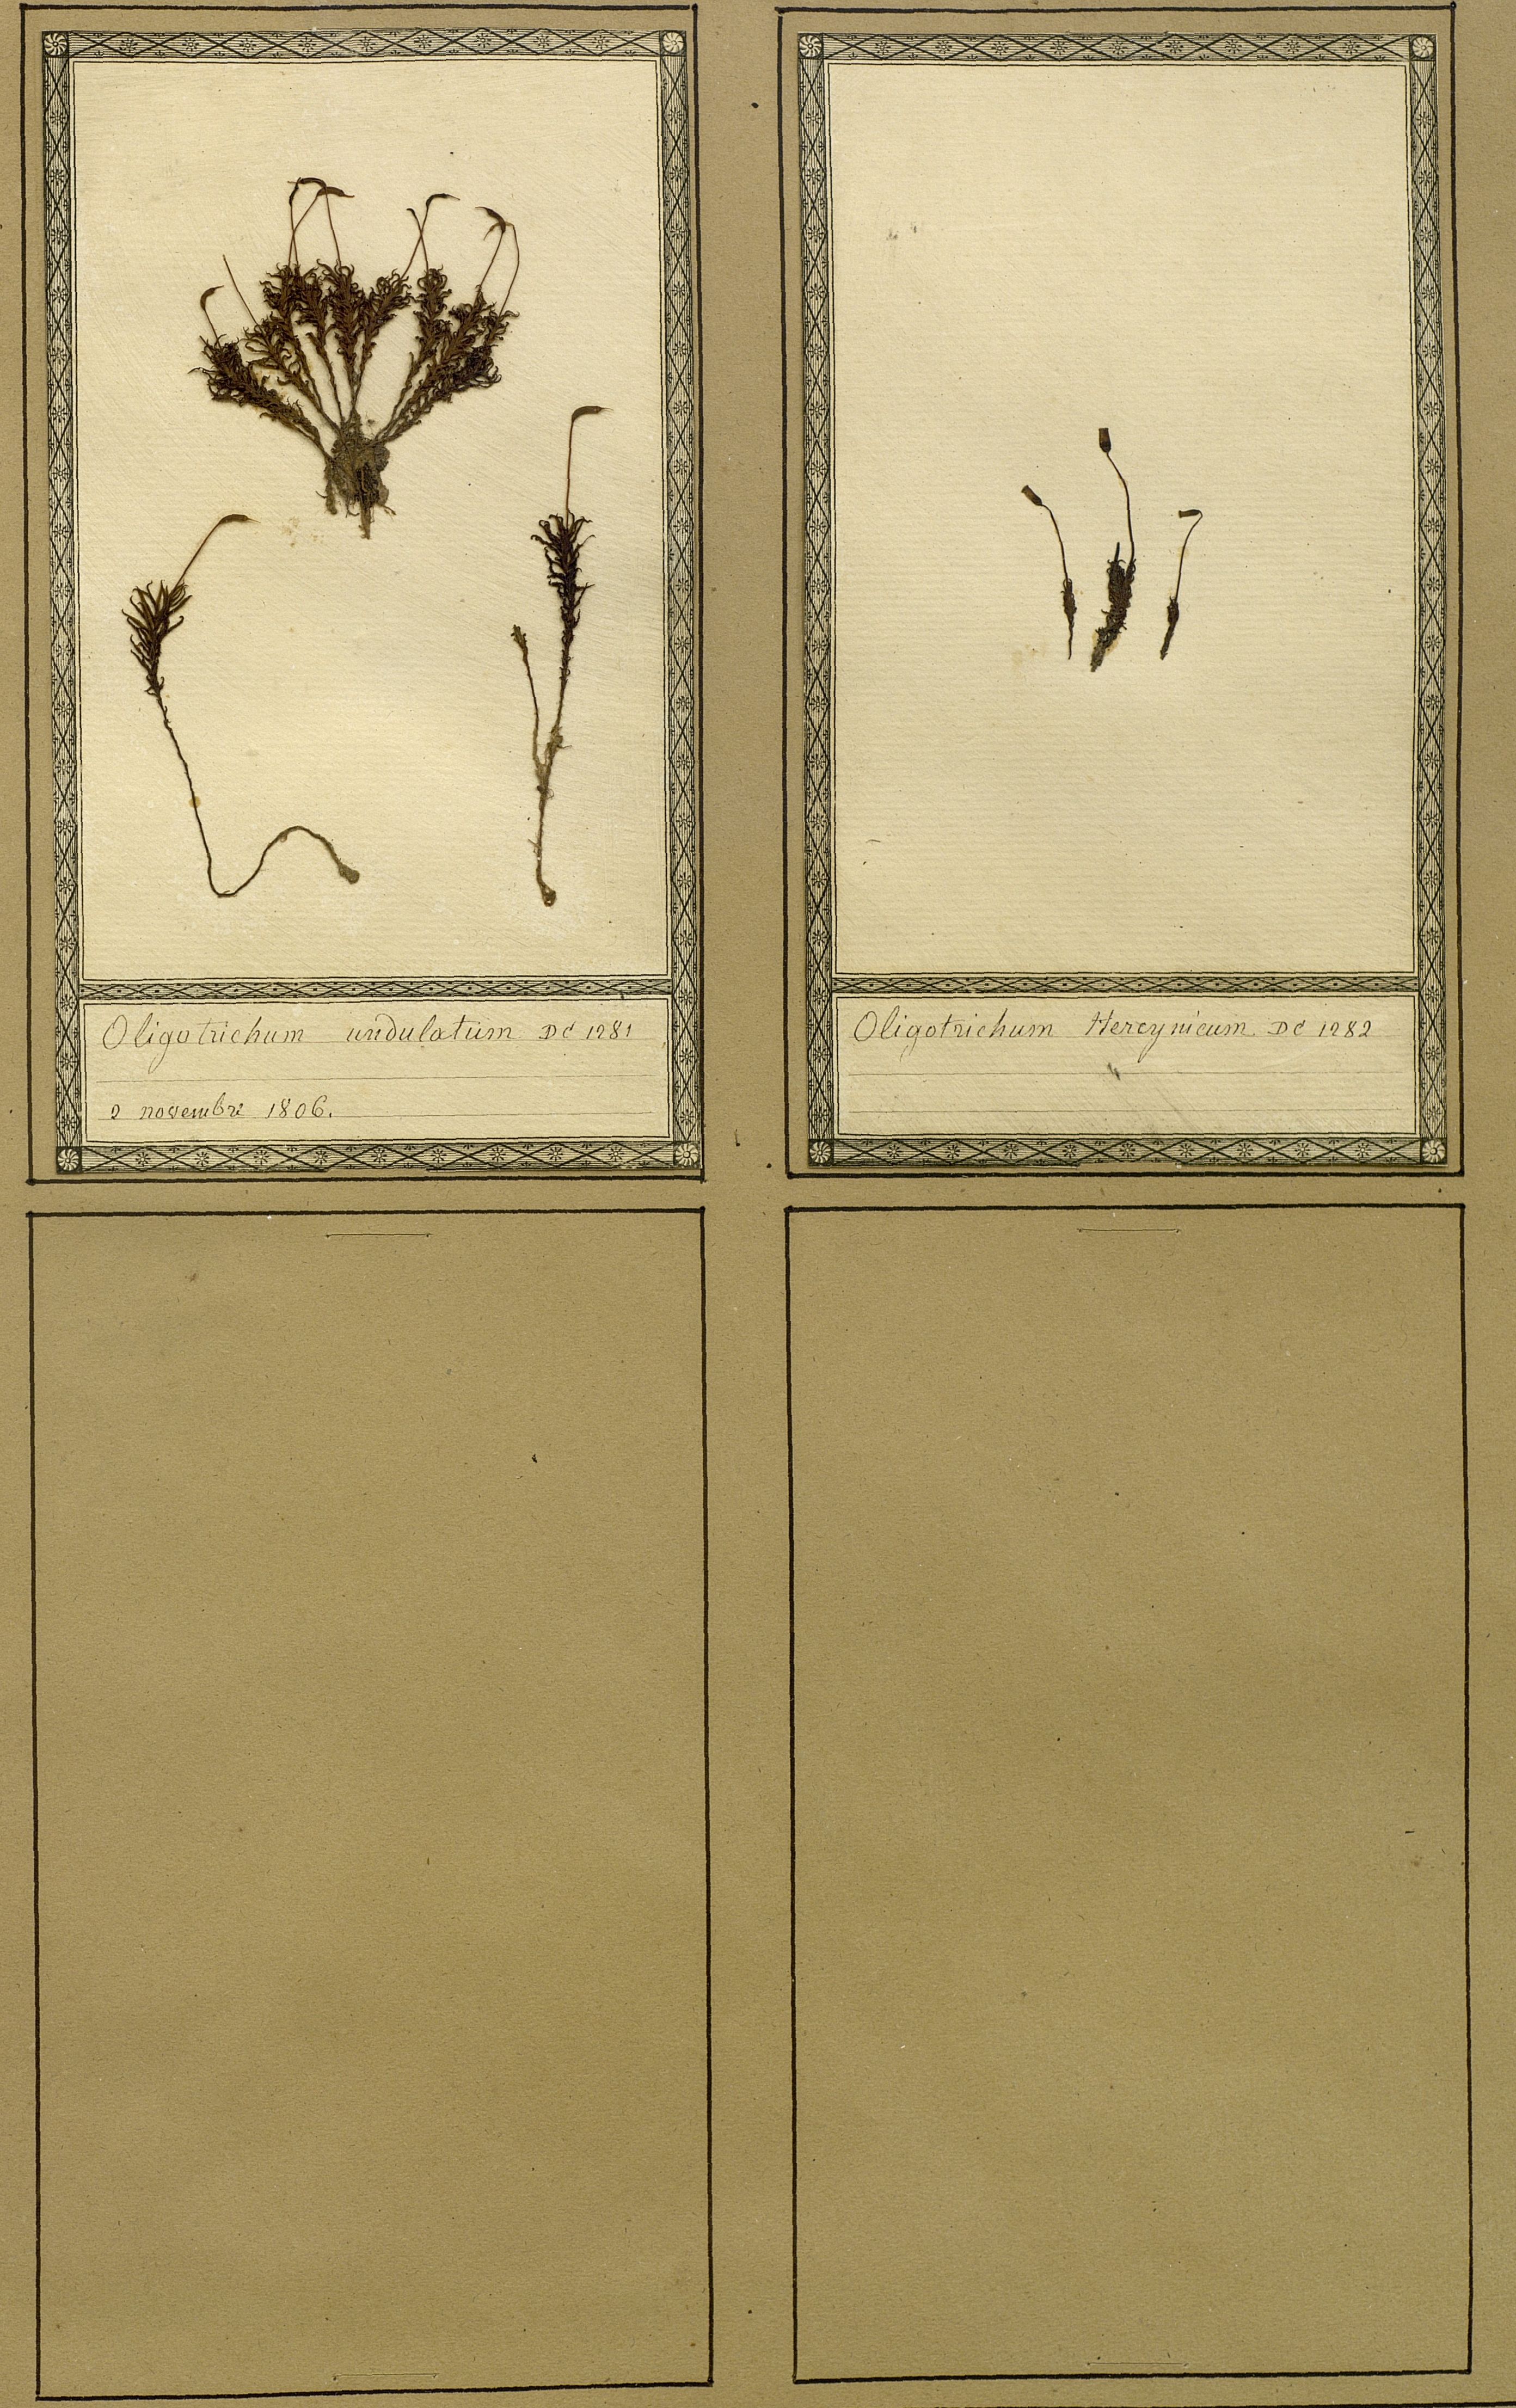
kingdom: Plantae
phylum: Bryophyta
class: Polytrichopsida
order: Polytrichales
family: Polytrichaceae
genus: Atrichum
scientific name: Atrichum undulatum
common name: Common smoothcap
